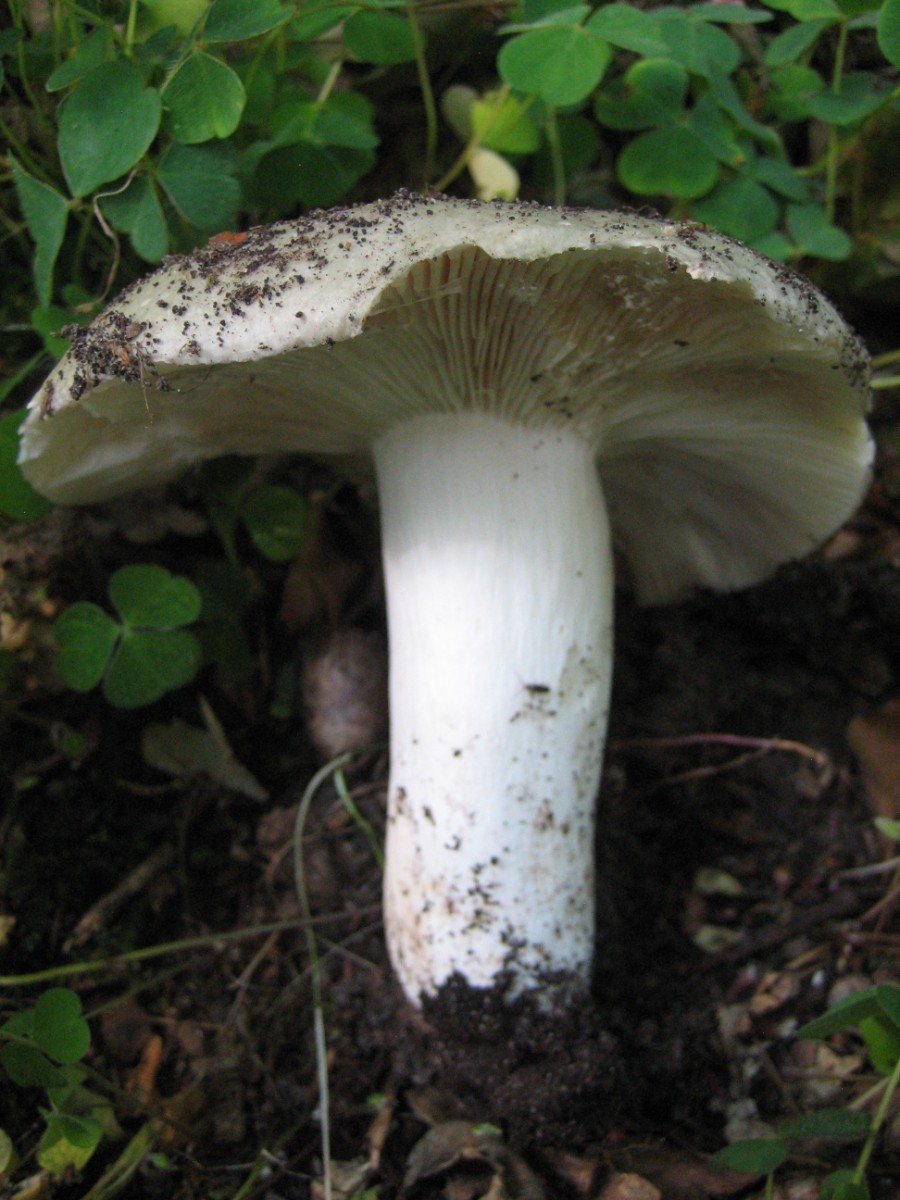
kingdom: Fungi
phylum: Basidiomycota
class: Agaricomycetes
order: Russulales
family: Russulaceae
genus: Russula
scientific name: Russula
